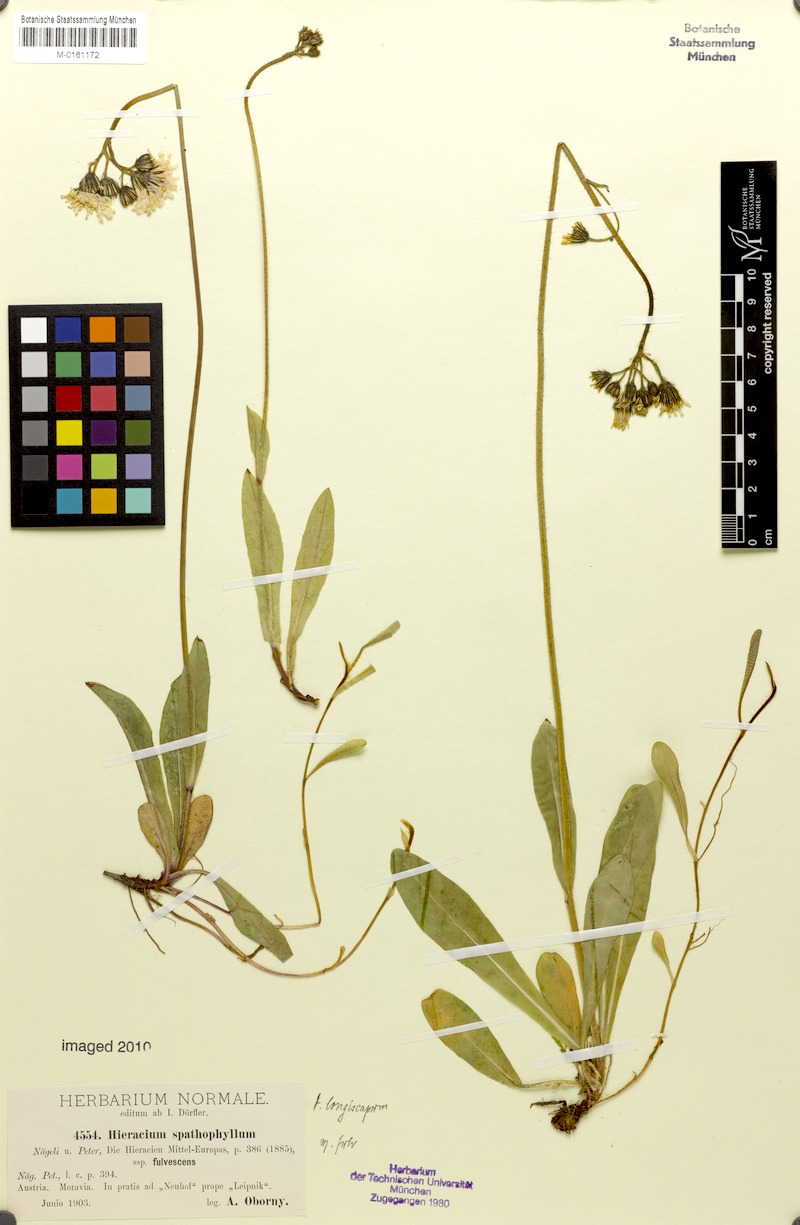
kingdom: Plantae
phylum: Tracheophyta
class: Magnoliopsida
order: Asterales
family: Asteraceae
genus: Pilosella
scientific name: Pilosella longiscapa
